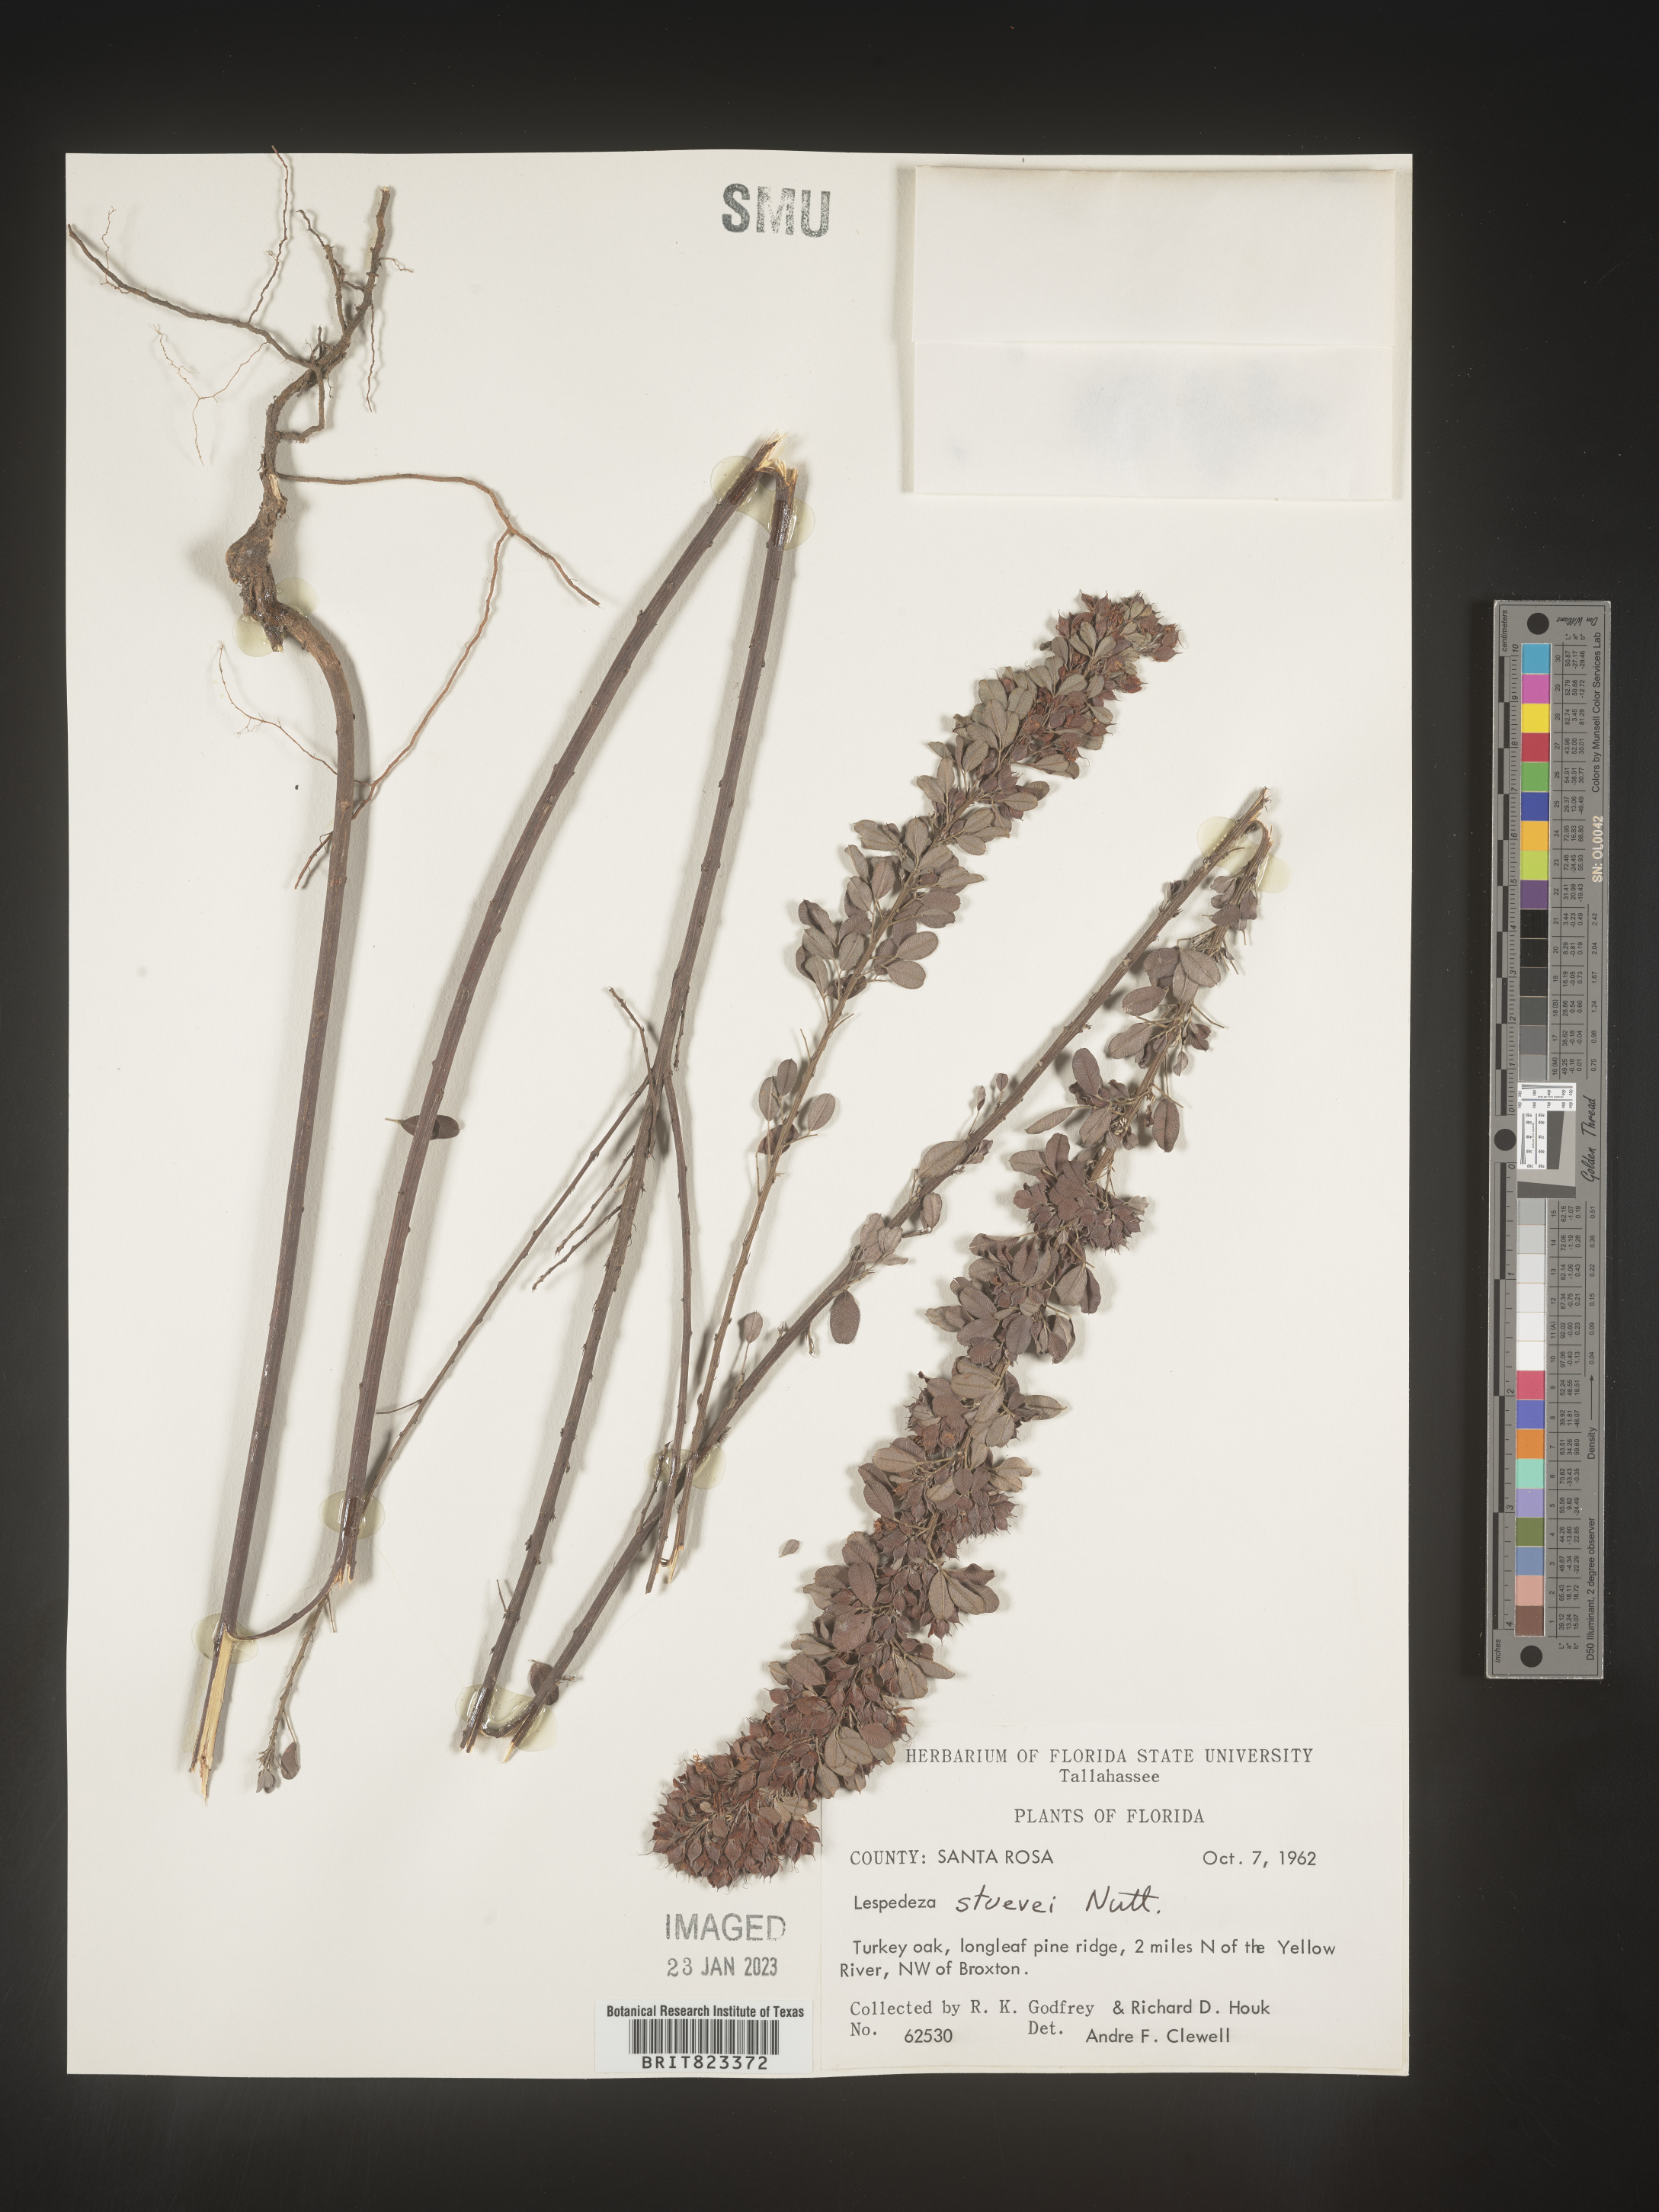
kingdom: Plantae
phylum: Tracheophyta
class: Magnoliopsida
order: Fabales
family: Fabaceae
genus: Lespedeza
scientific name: Lespedeza stuevei
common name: Tall bush-clover
